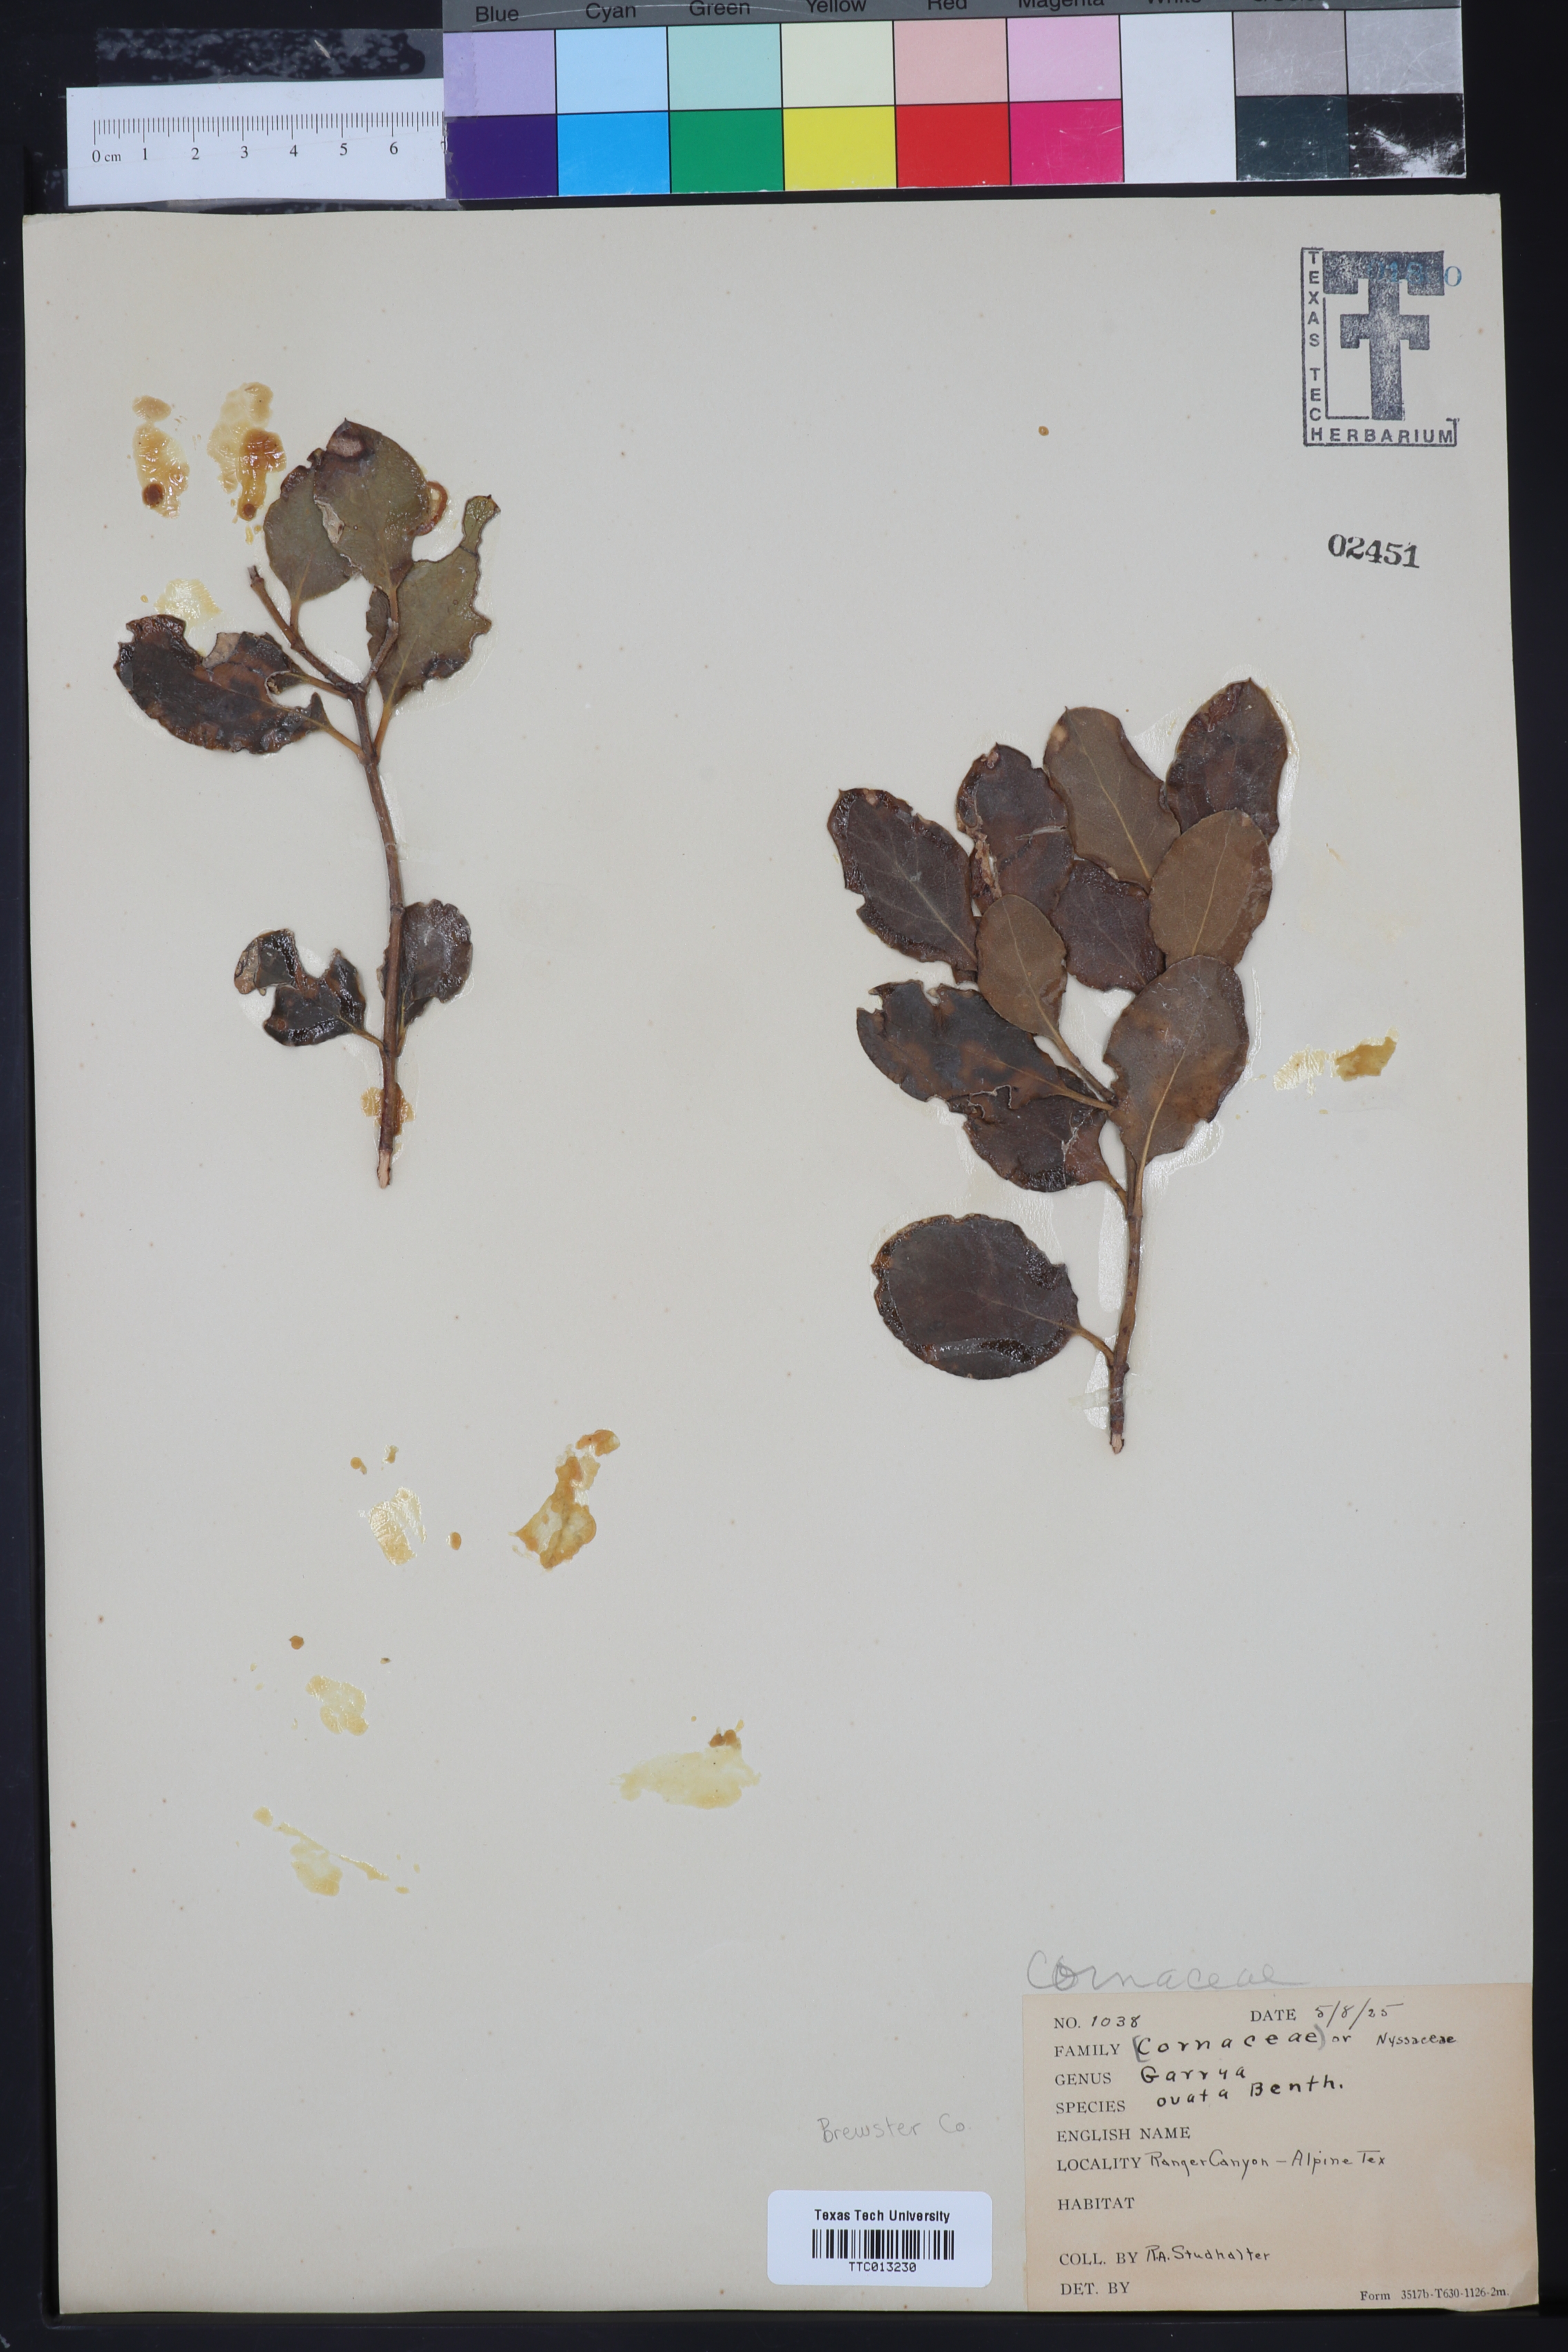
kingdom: Plantae
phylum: Tracheophyta
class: Magnoliopsida
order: Garryales
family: Garryaceae
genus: Garrya
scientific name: Garrya ovata
